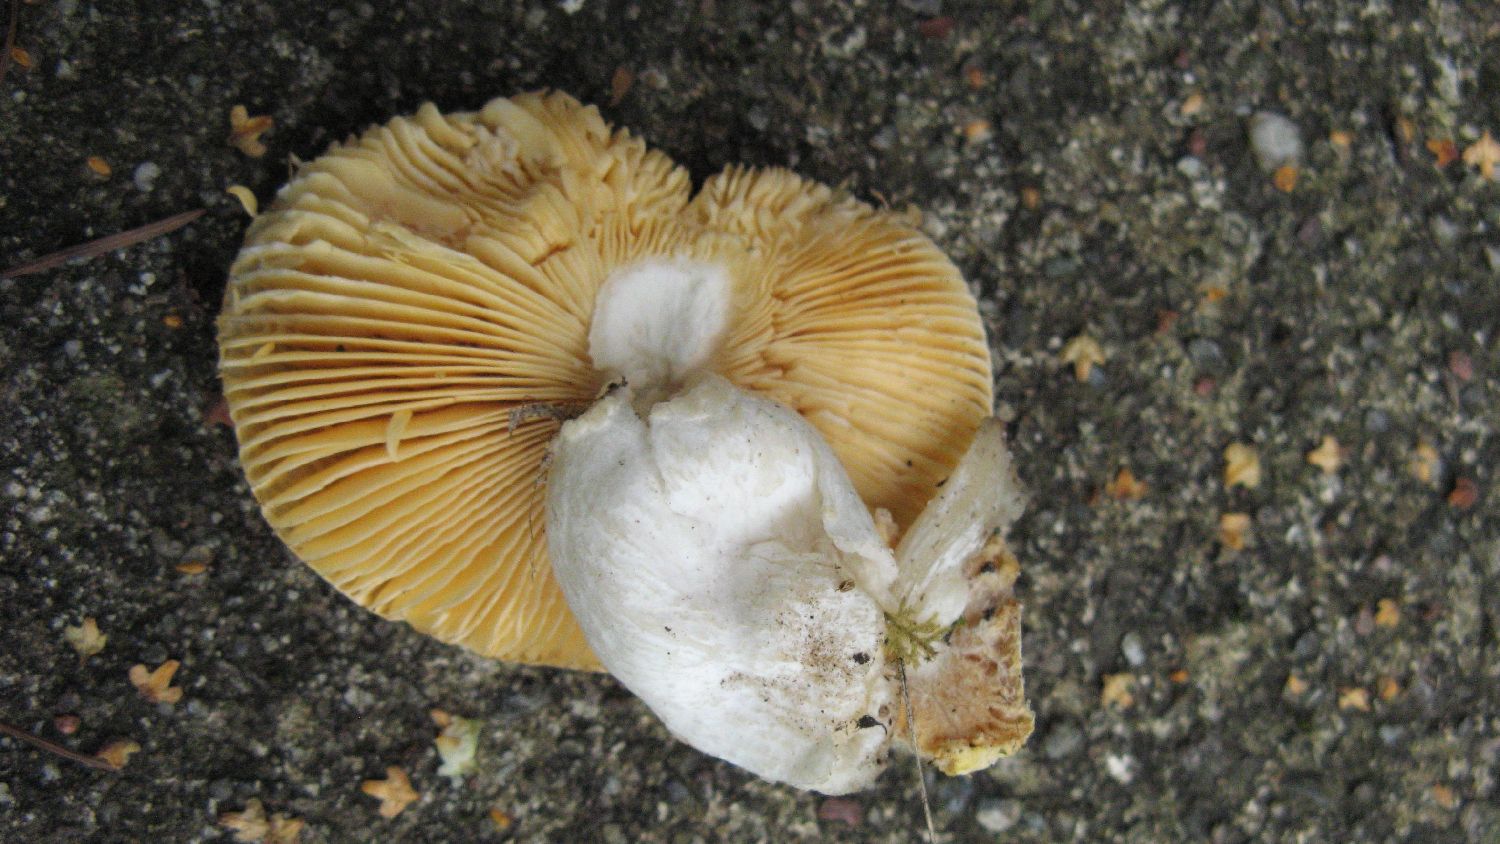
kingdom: Fungi
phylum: Basidiomycota
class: Agaricomycetes
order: Russulales
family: Russulaceae
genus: Russula
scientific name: Russula risigallina
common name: abrikos-skørhat
